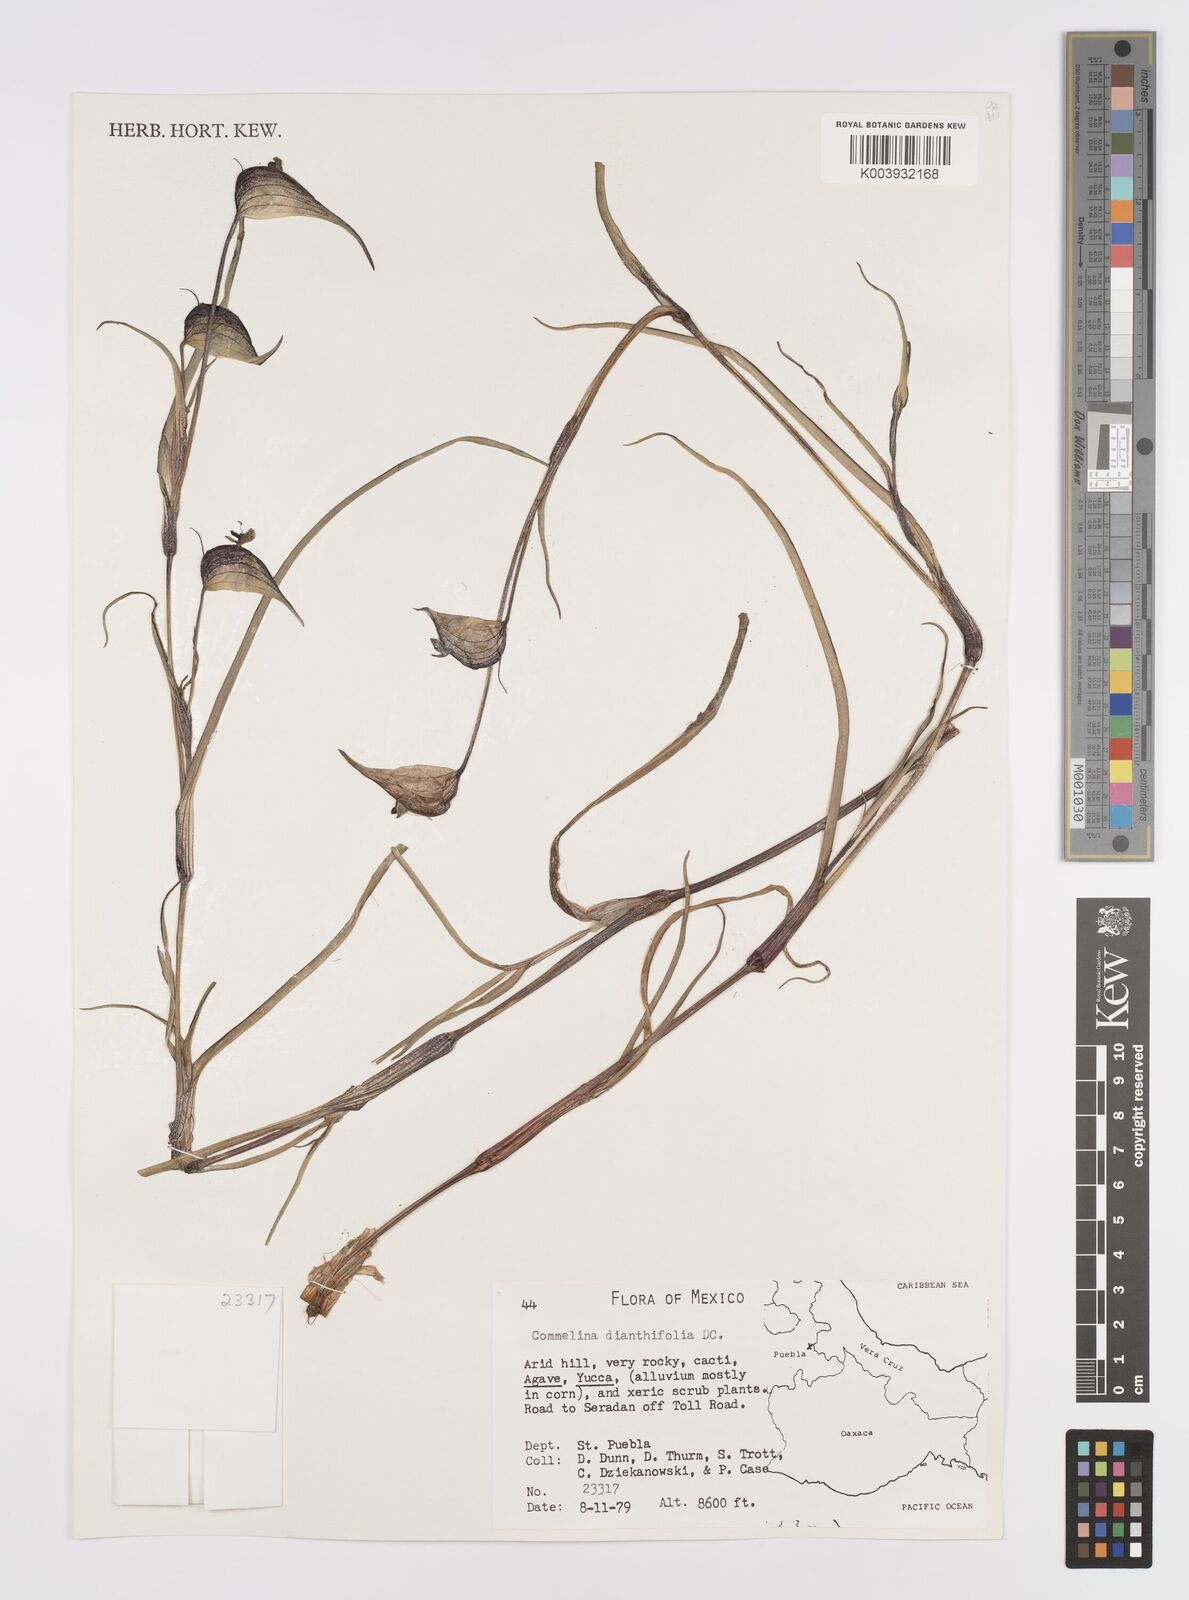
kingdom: Plantae
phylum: Tracheophyta
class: Liliopsida
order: Commelinales
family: Commelinaceae
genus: Commelina
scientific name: Commelina dianthifolia
